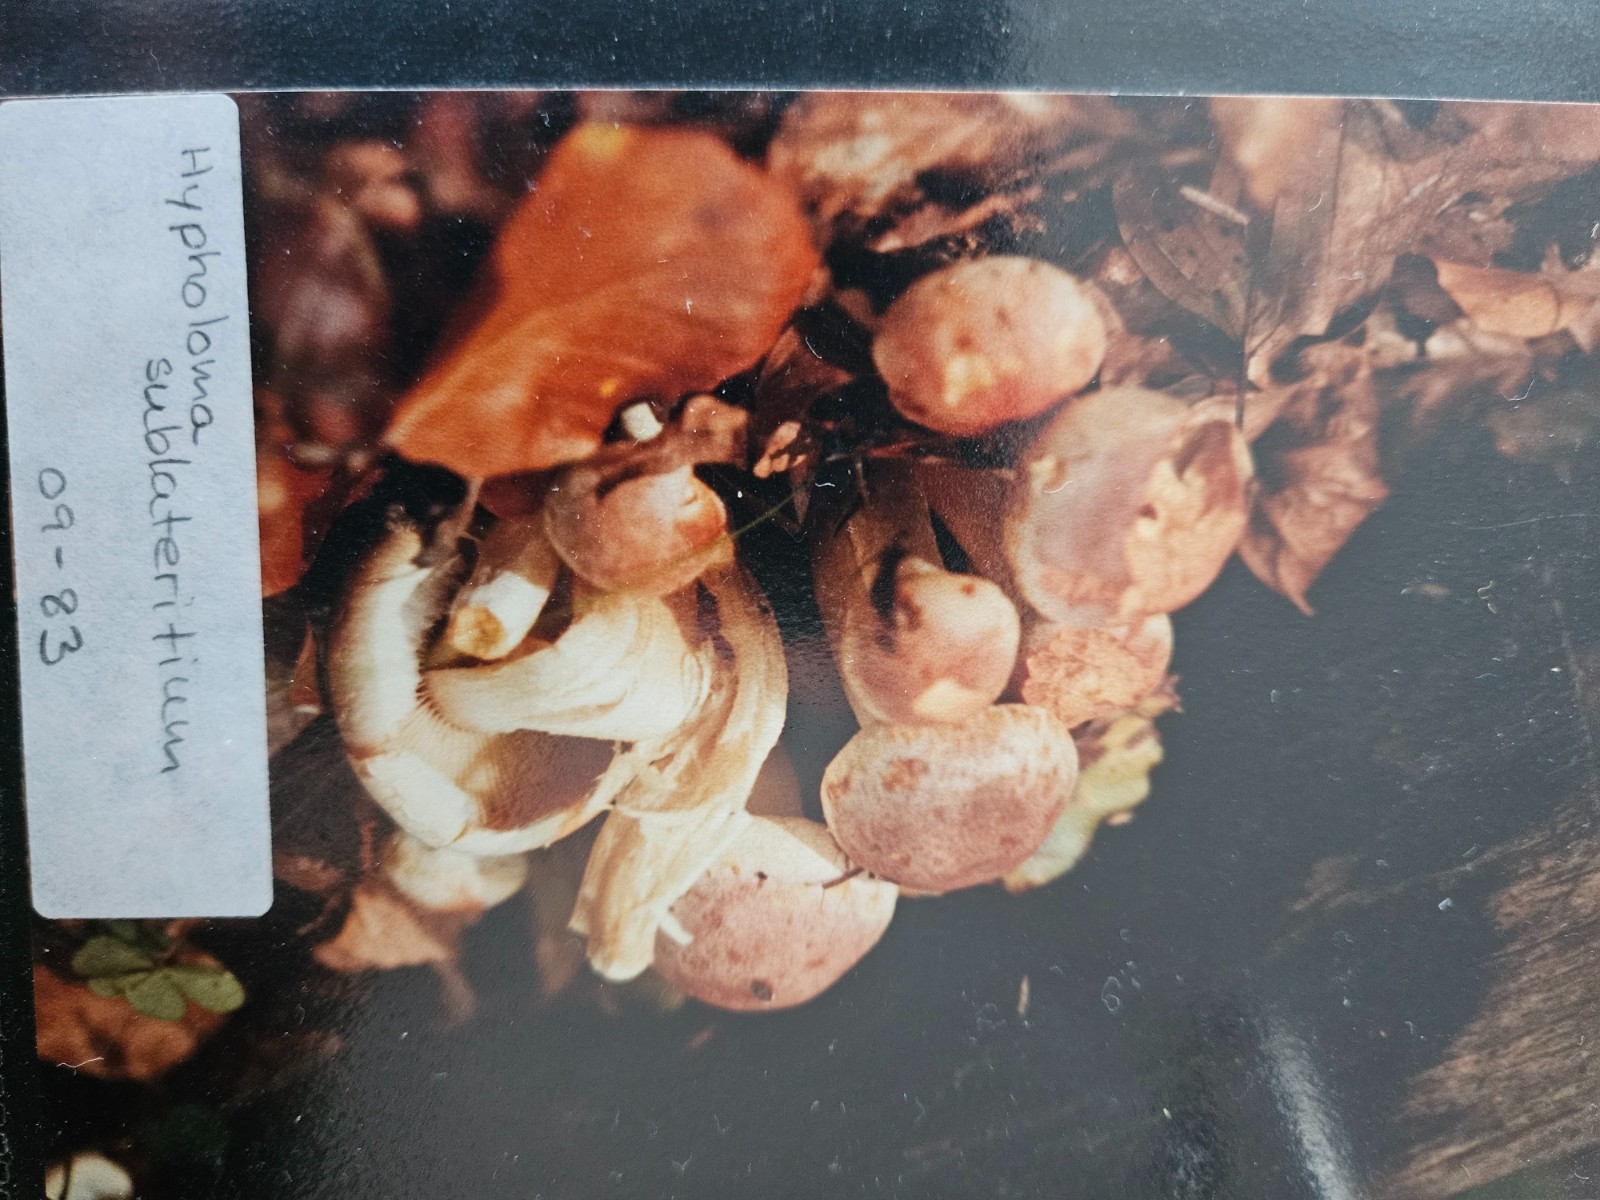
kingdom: Fungi
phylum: Basidiomycota
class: Agaricomycetes
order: Agaricales
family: Strophariaceae
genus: Hypholoma
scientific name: Hypholoma lateritium
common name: teglrød svovlhat
